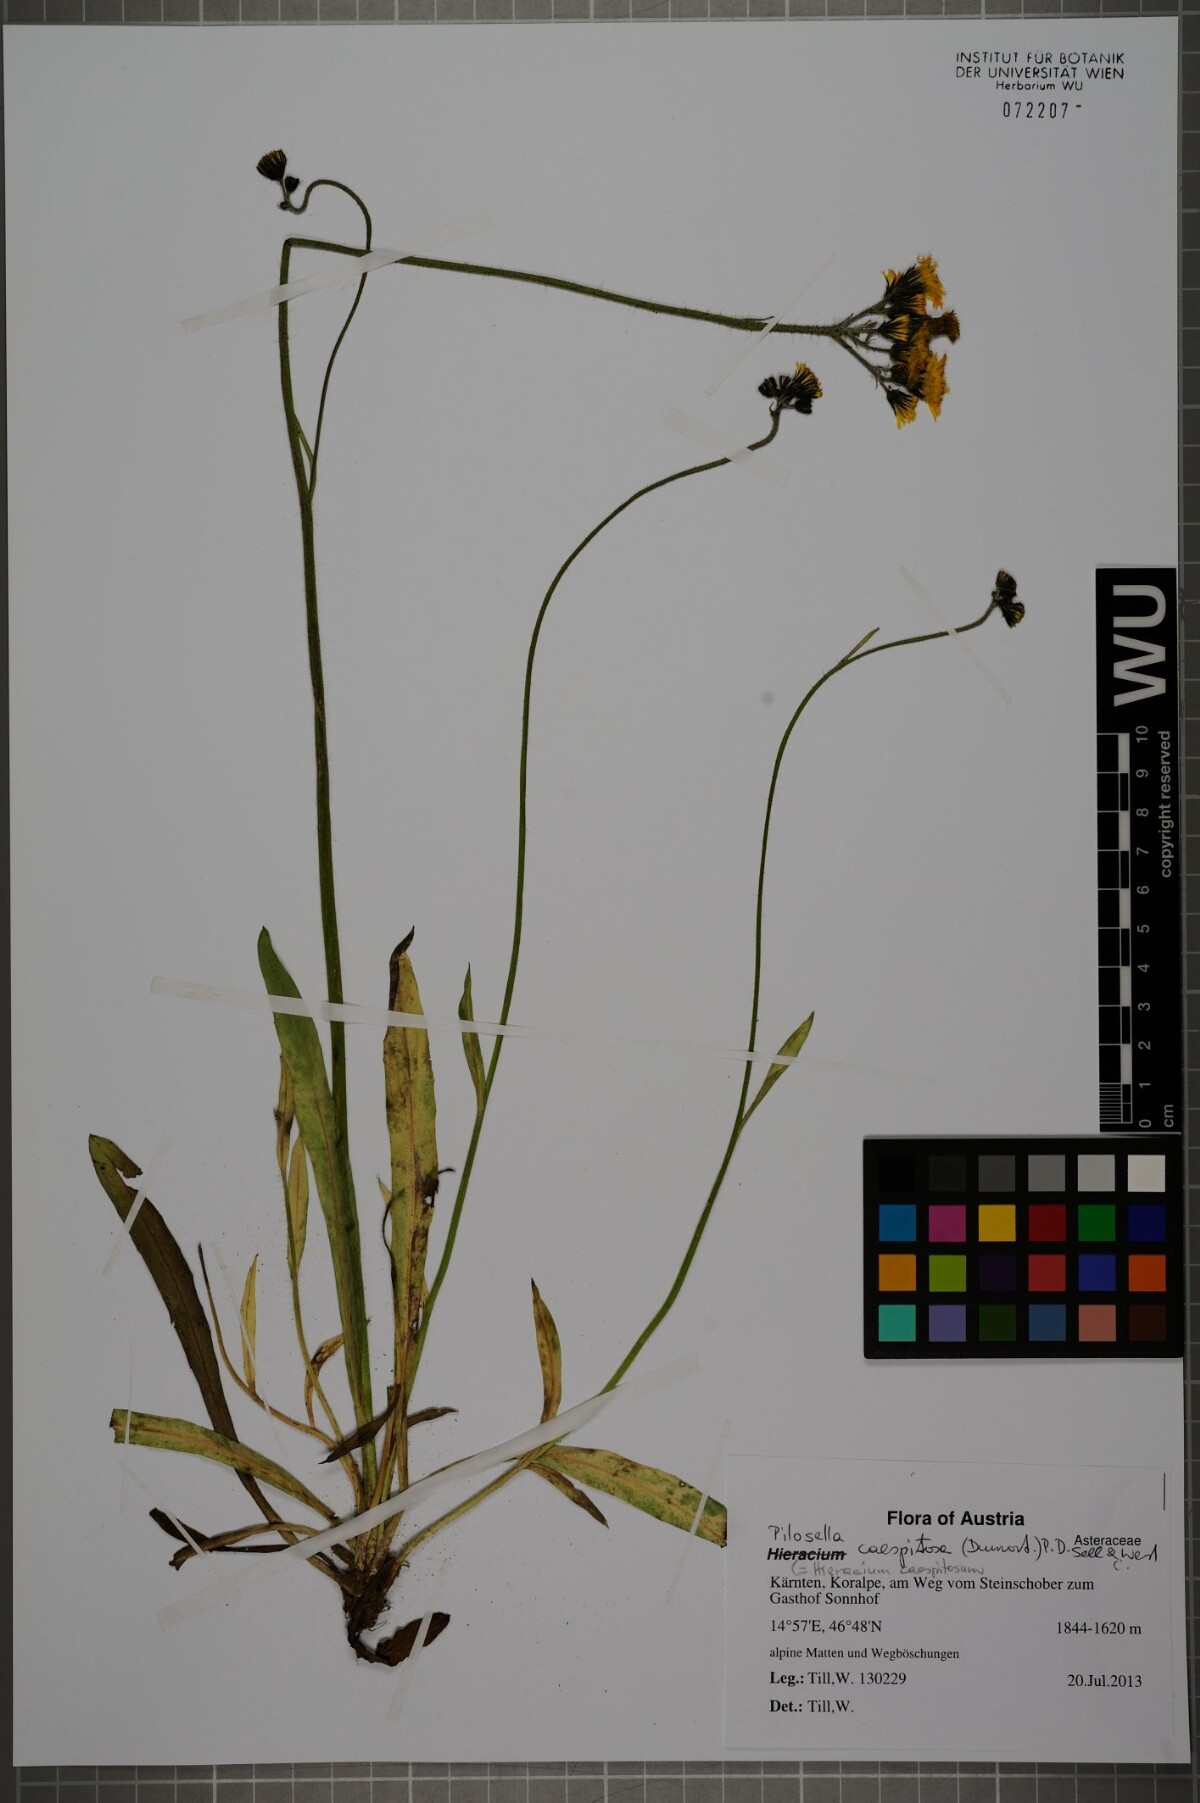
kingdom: Plantae
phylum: Tracheophyta
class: Magnoliopsida
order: Asterales
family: Asteraceae
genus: Pilosella
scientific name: Pilosella caespitosa
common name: Yellow fox-and-cubs
